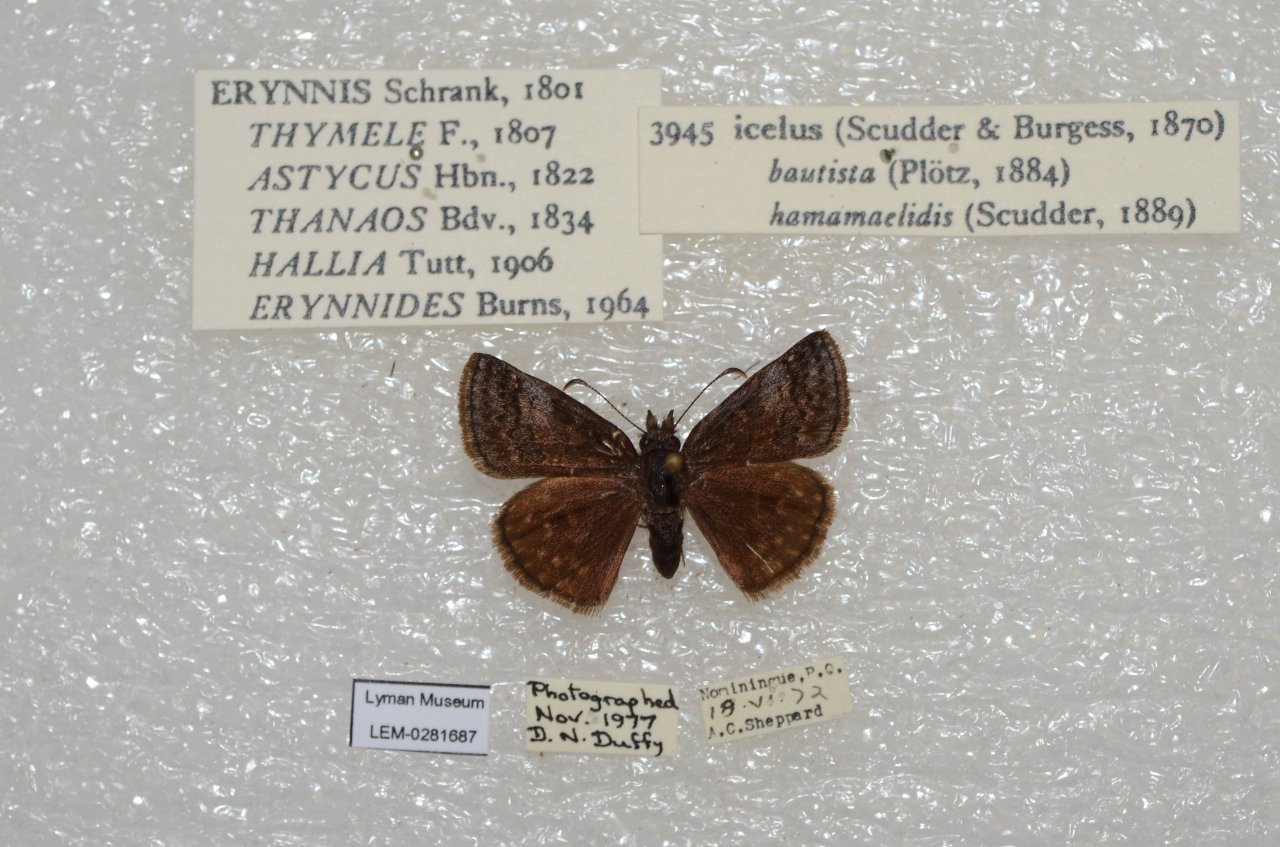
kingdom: Animalia
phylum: Arthropoda
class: Insecta
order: Lepidoptera
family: Hesperiidae
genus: Erynnis
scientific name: Erynnis icelus
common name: Dreamy Duskywing
